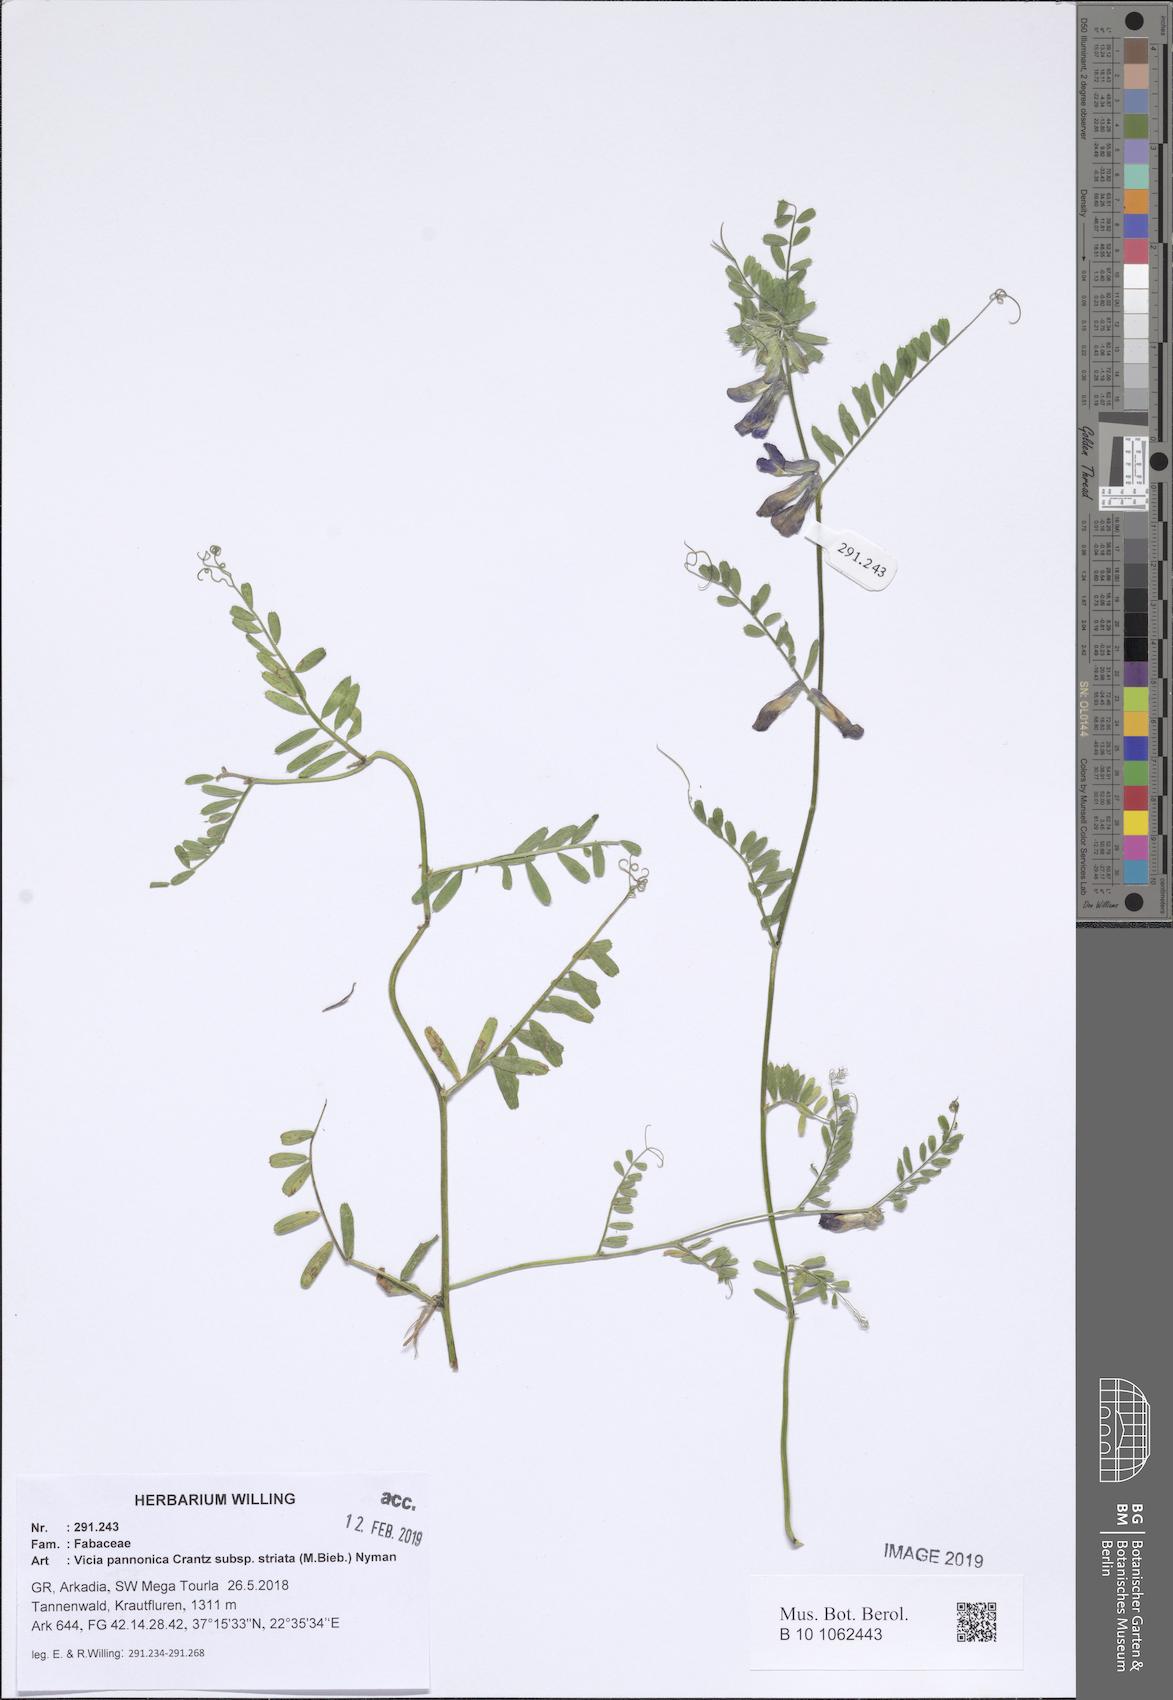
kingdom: Plantae
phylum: Tracheophyta
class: Magnoliopsida
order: Fabales
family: Fabaceae
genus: Vicia
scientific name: Vicia pannonica
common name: Hungarian vetch
